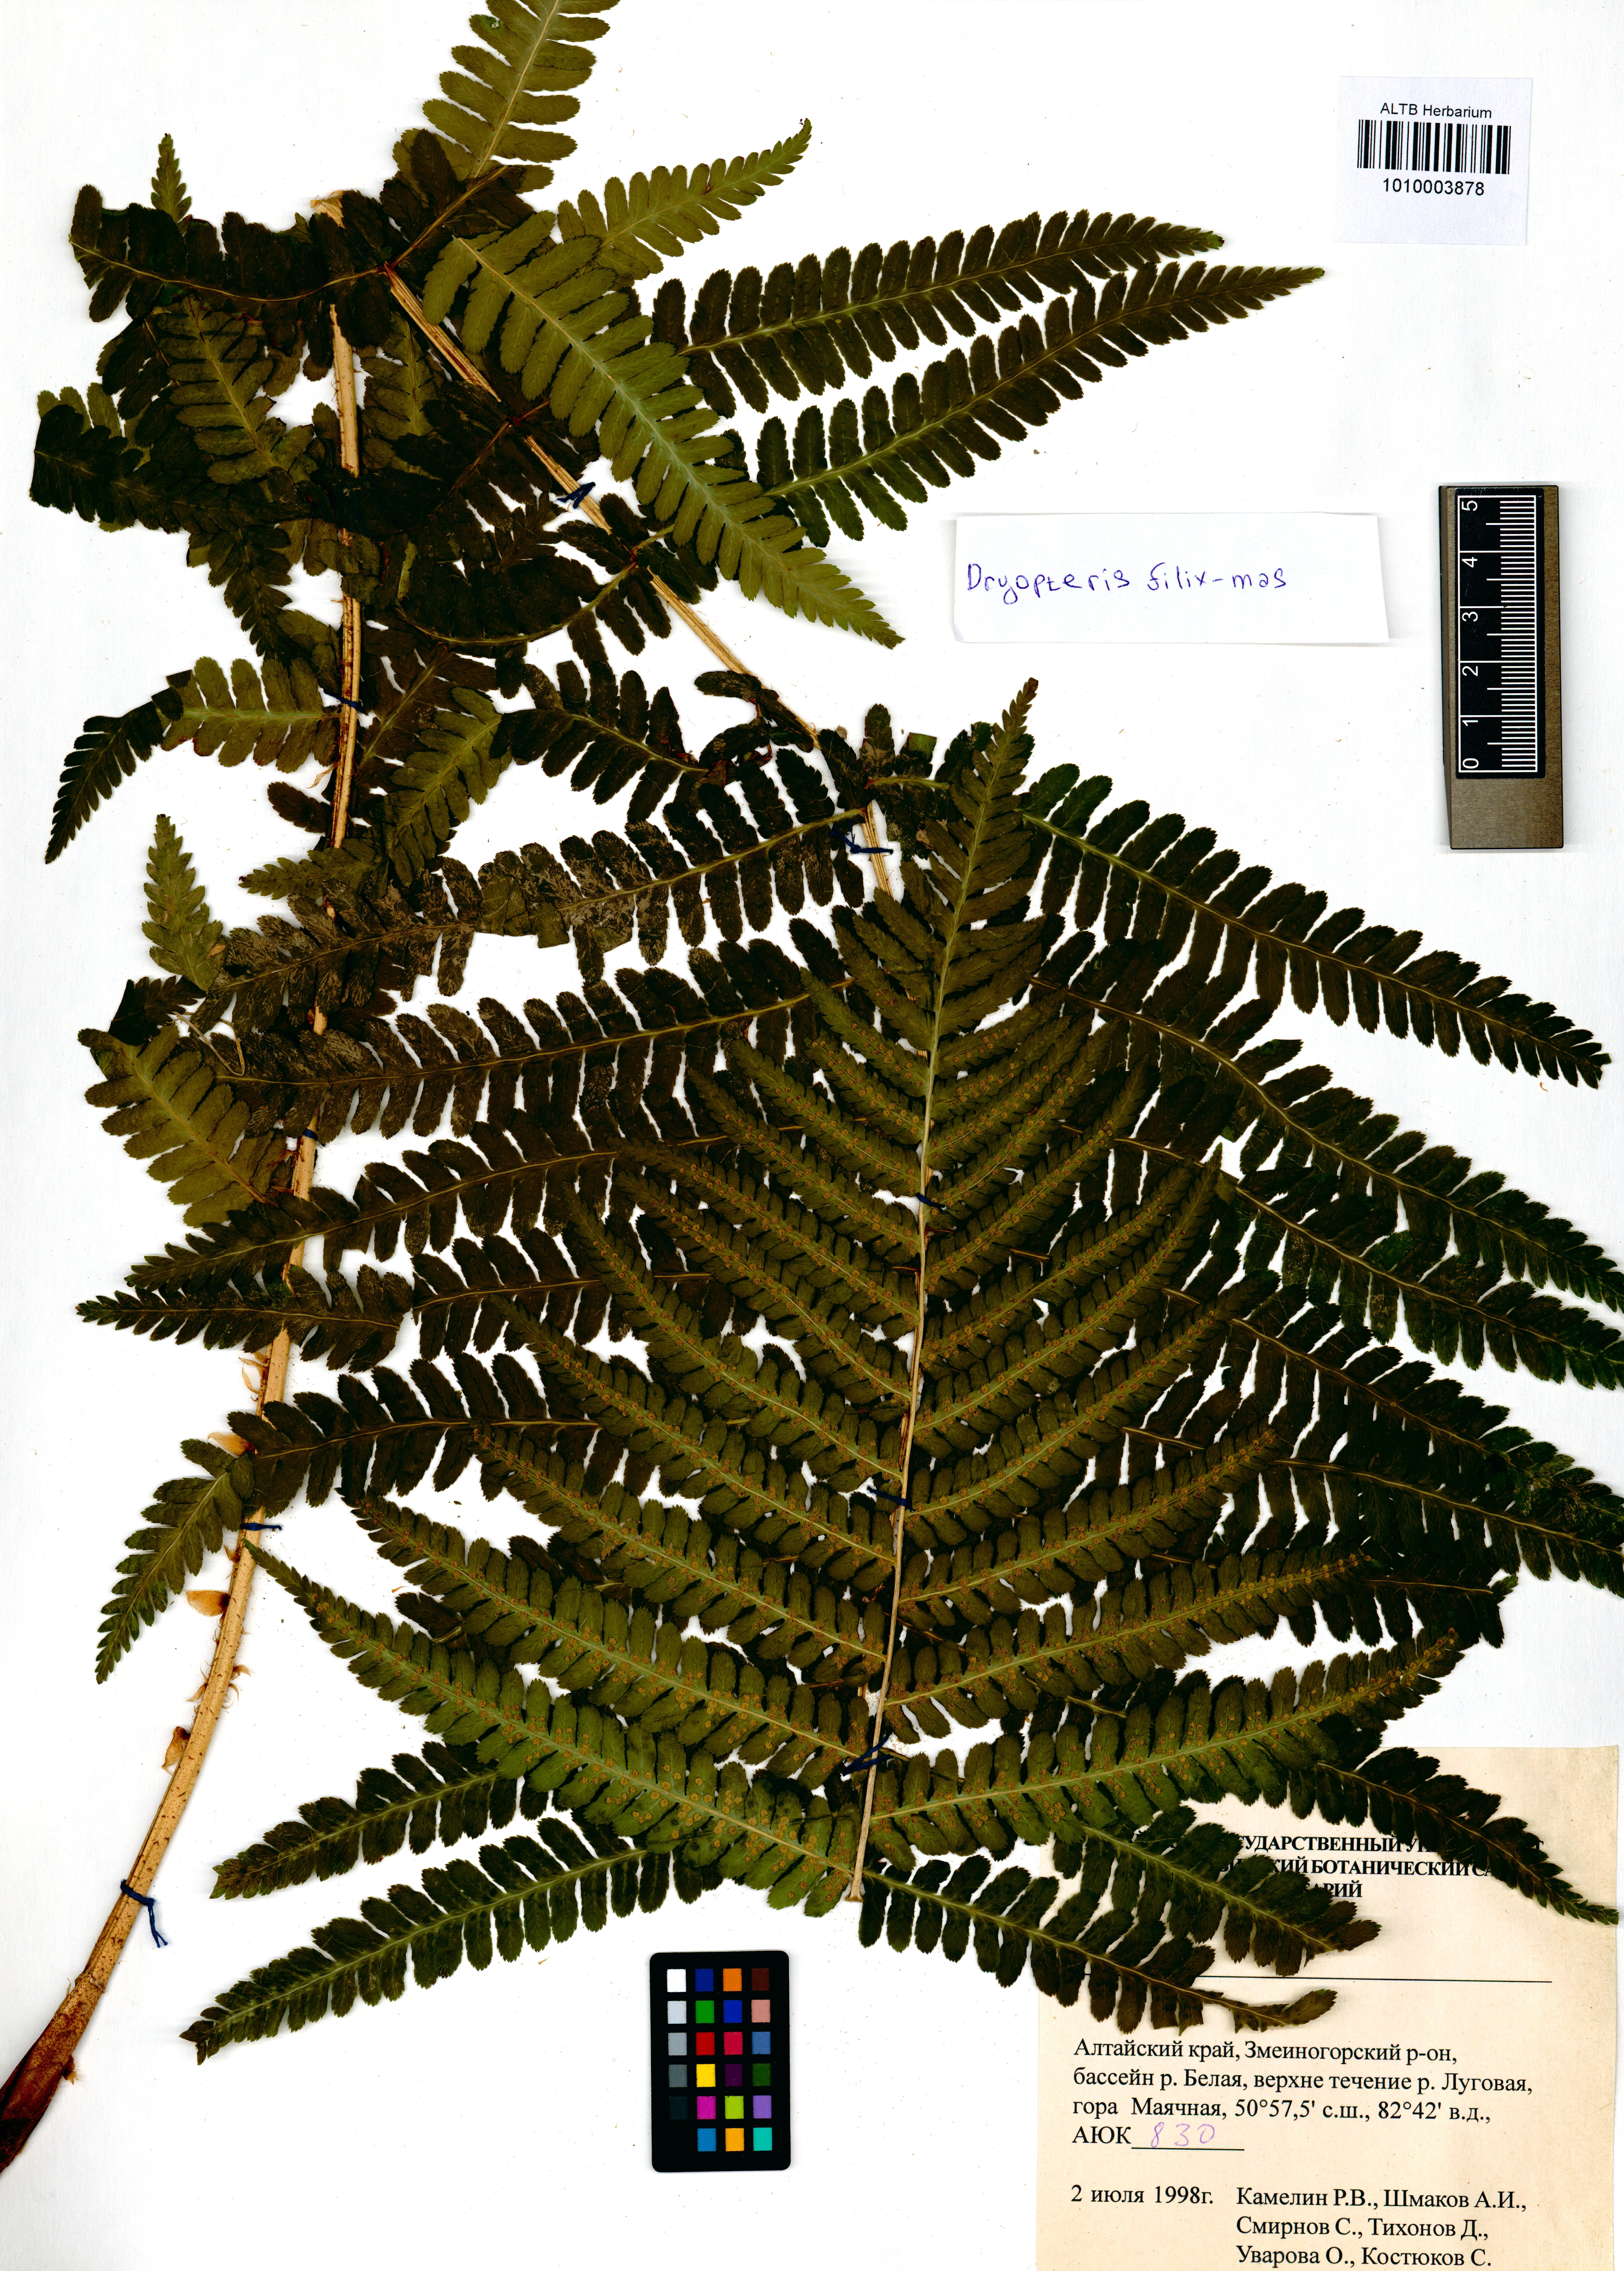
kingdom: Plantae
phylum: Tracheophyta
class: Polypodiopsida
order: Polypodiales
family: Dryopteridaceae
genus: Dryopteris
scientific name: Dryopteris filix-mas
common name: Male fern
